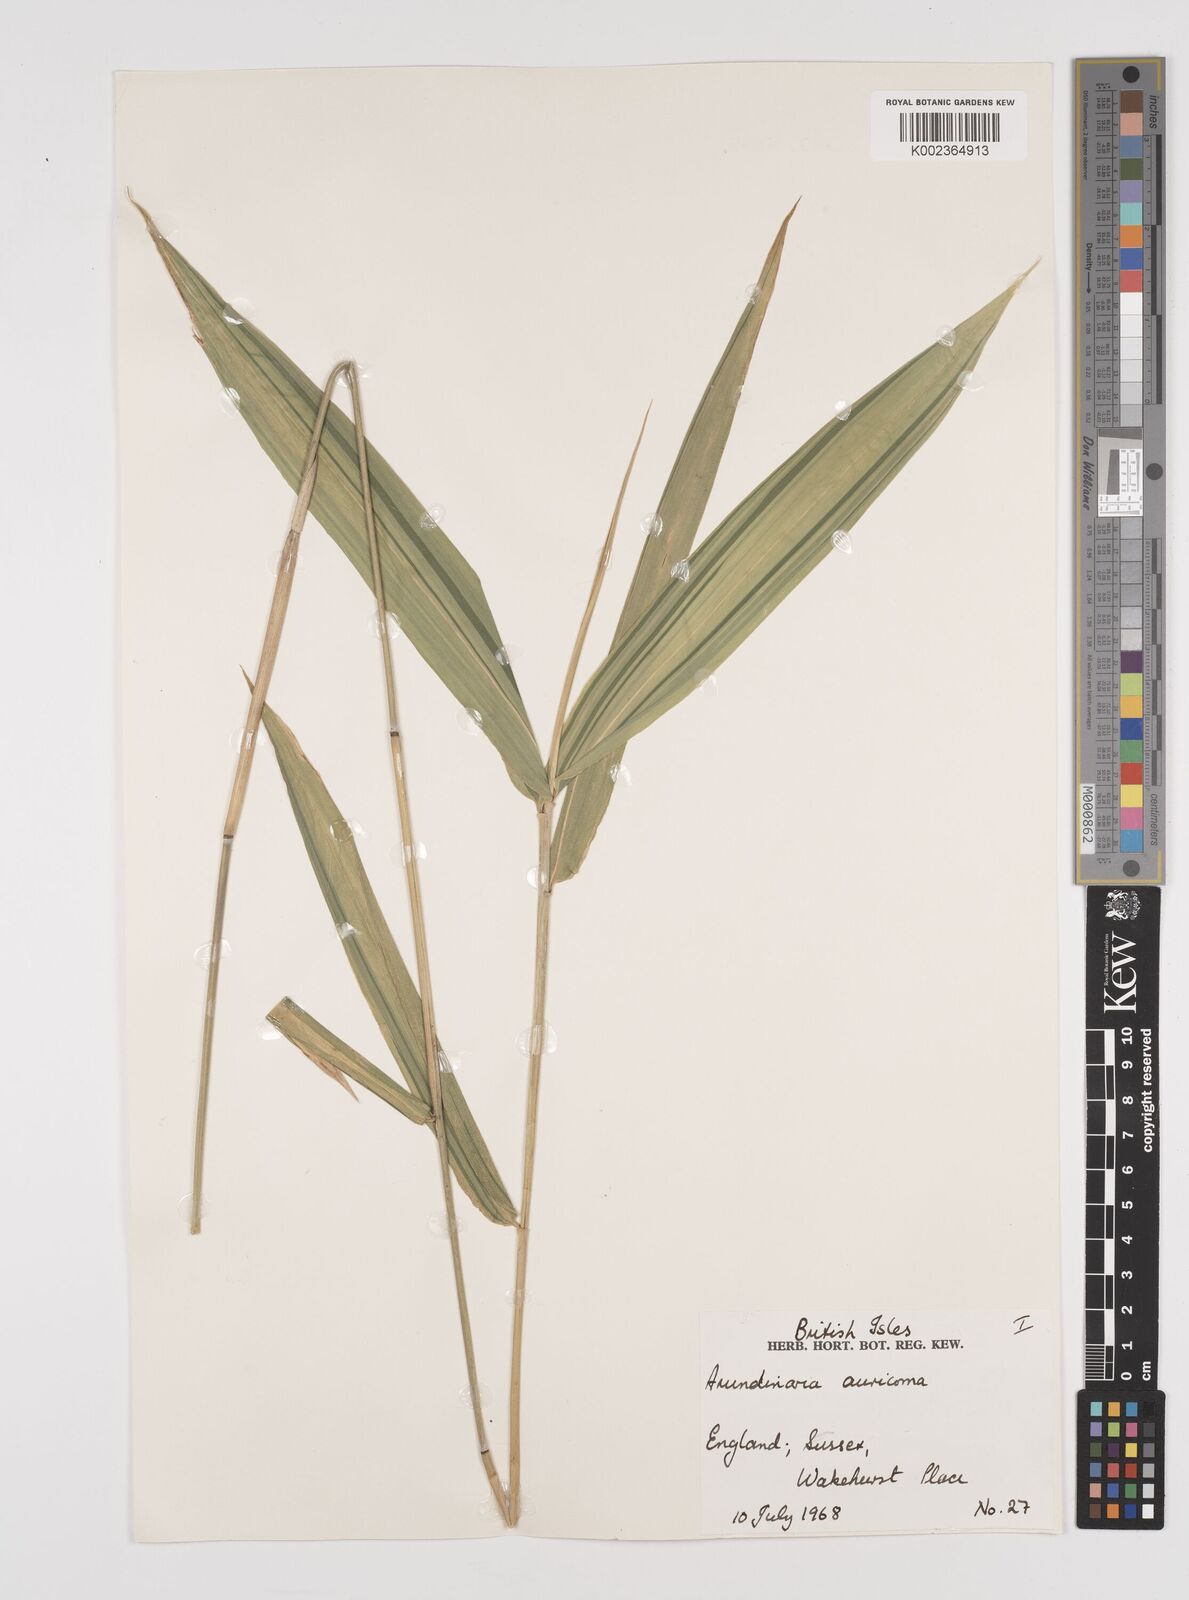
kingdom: Plantae
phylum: Tracheophyta
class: Liliopsida
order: Poales
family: Poaceae
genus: Pleioblastus
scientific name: Pleioblastus viridistriatus
